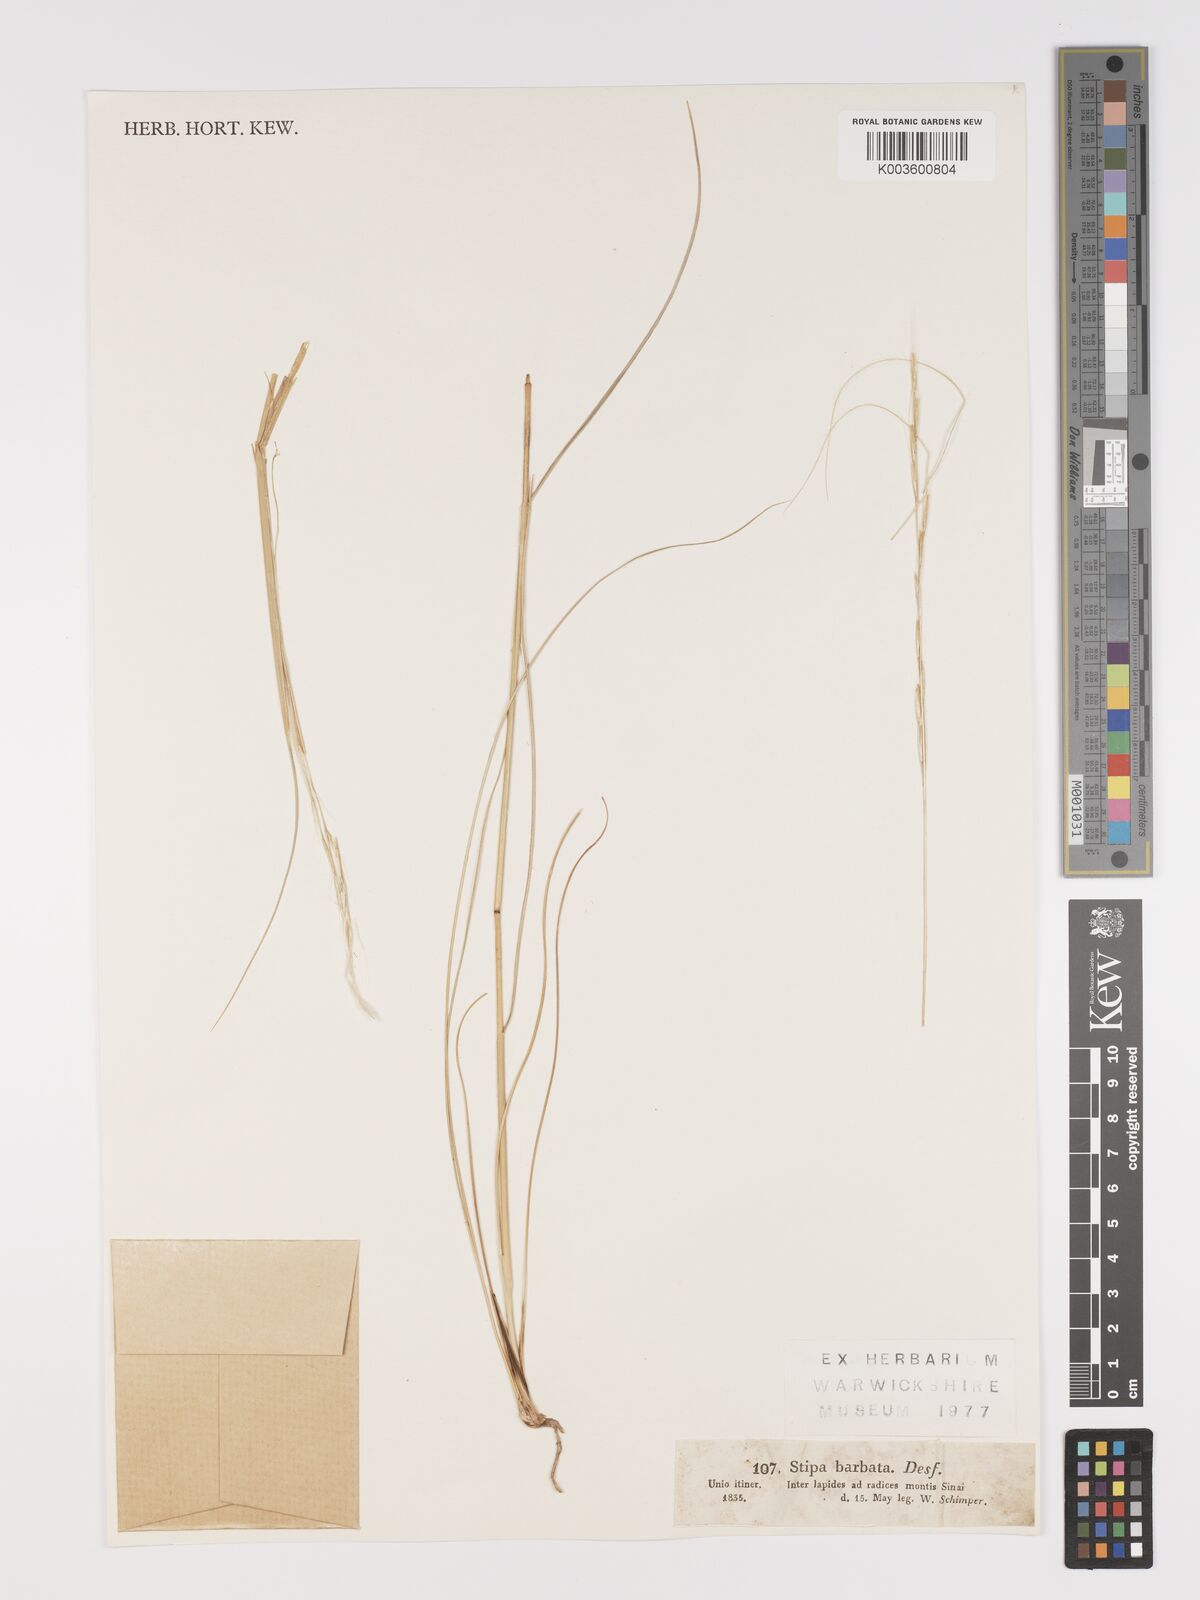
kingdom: Plantae
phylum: Tracheophyta
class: Liliopsida
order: Poales
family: Poaceae
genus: Stipa
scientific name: Stipa
